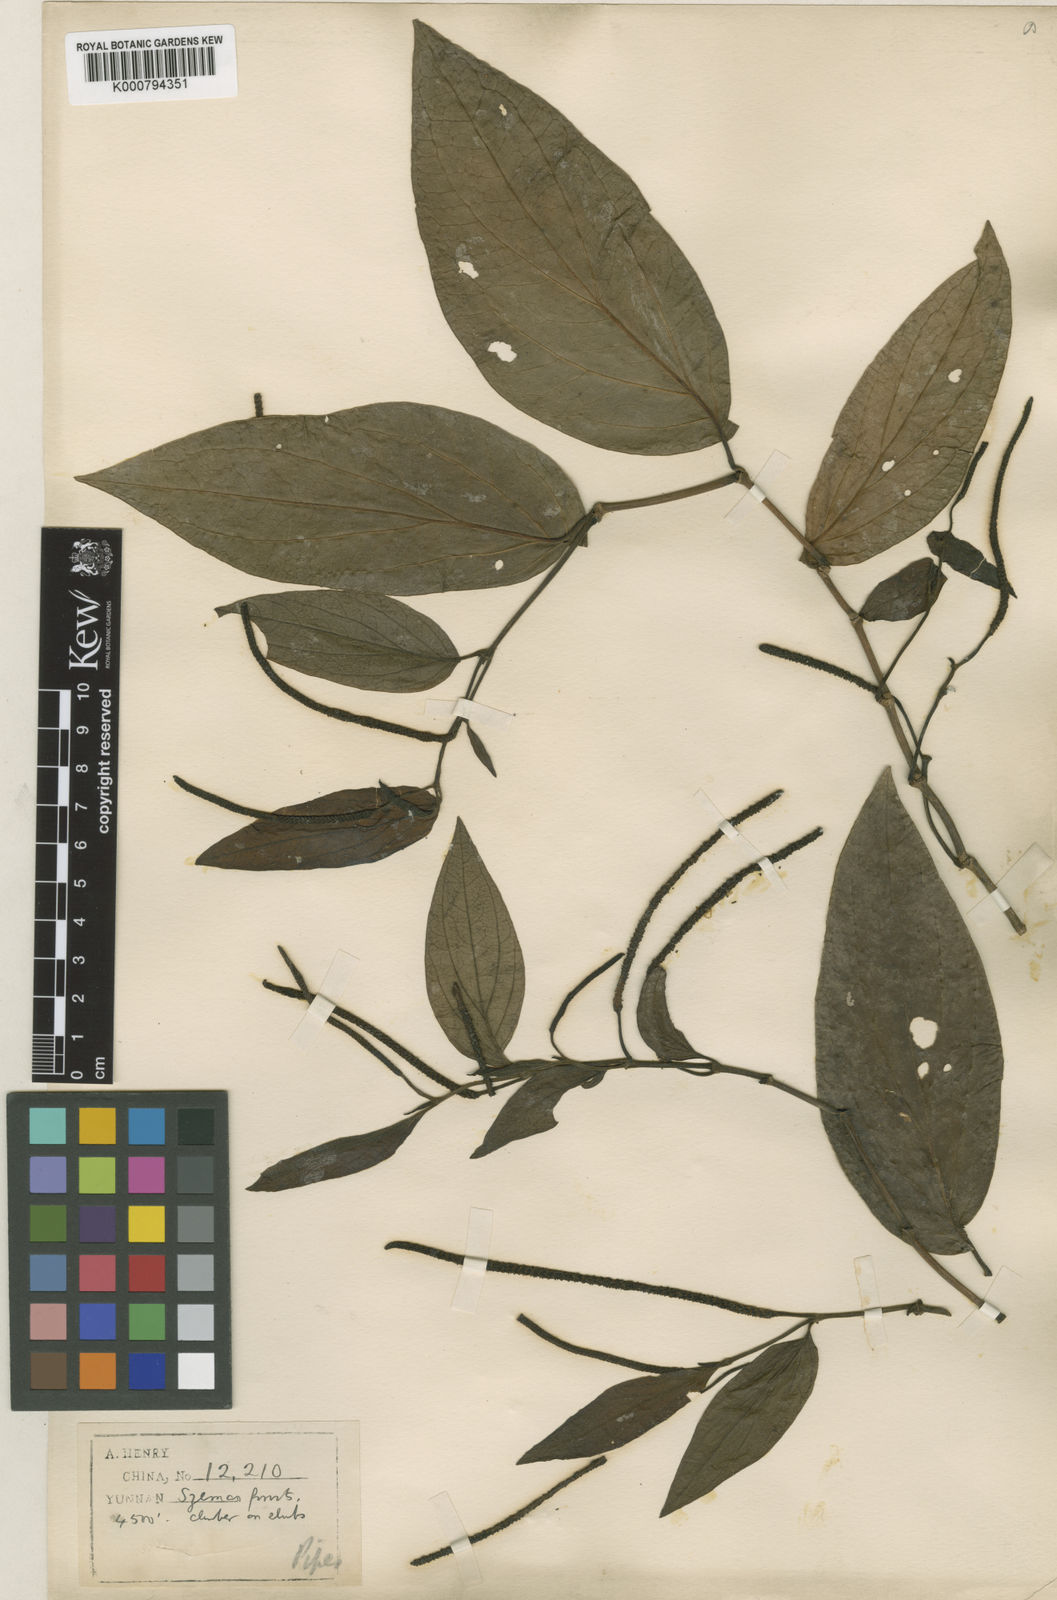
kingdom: Plantae
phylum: Tracheophyta
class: Magnoliopsida
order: Piperales
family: Piperaceae
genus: Piper
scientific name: Piper macropodum
